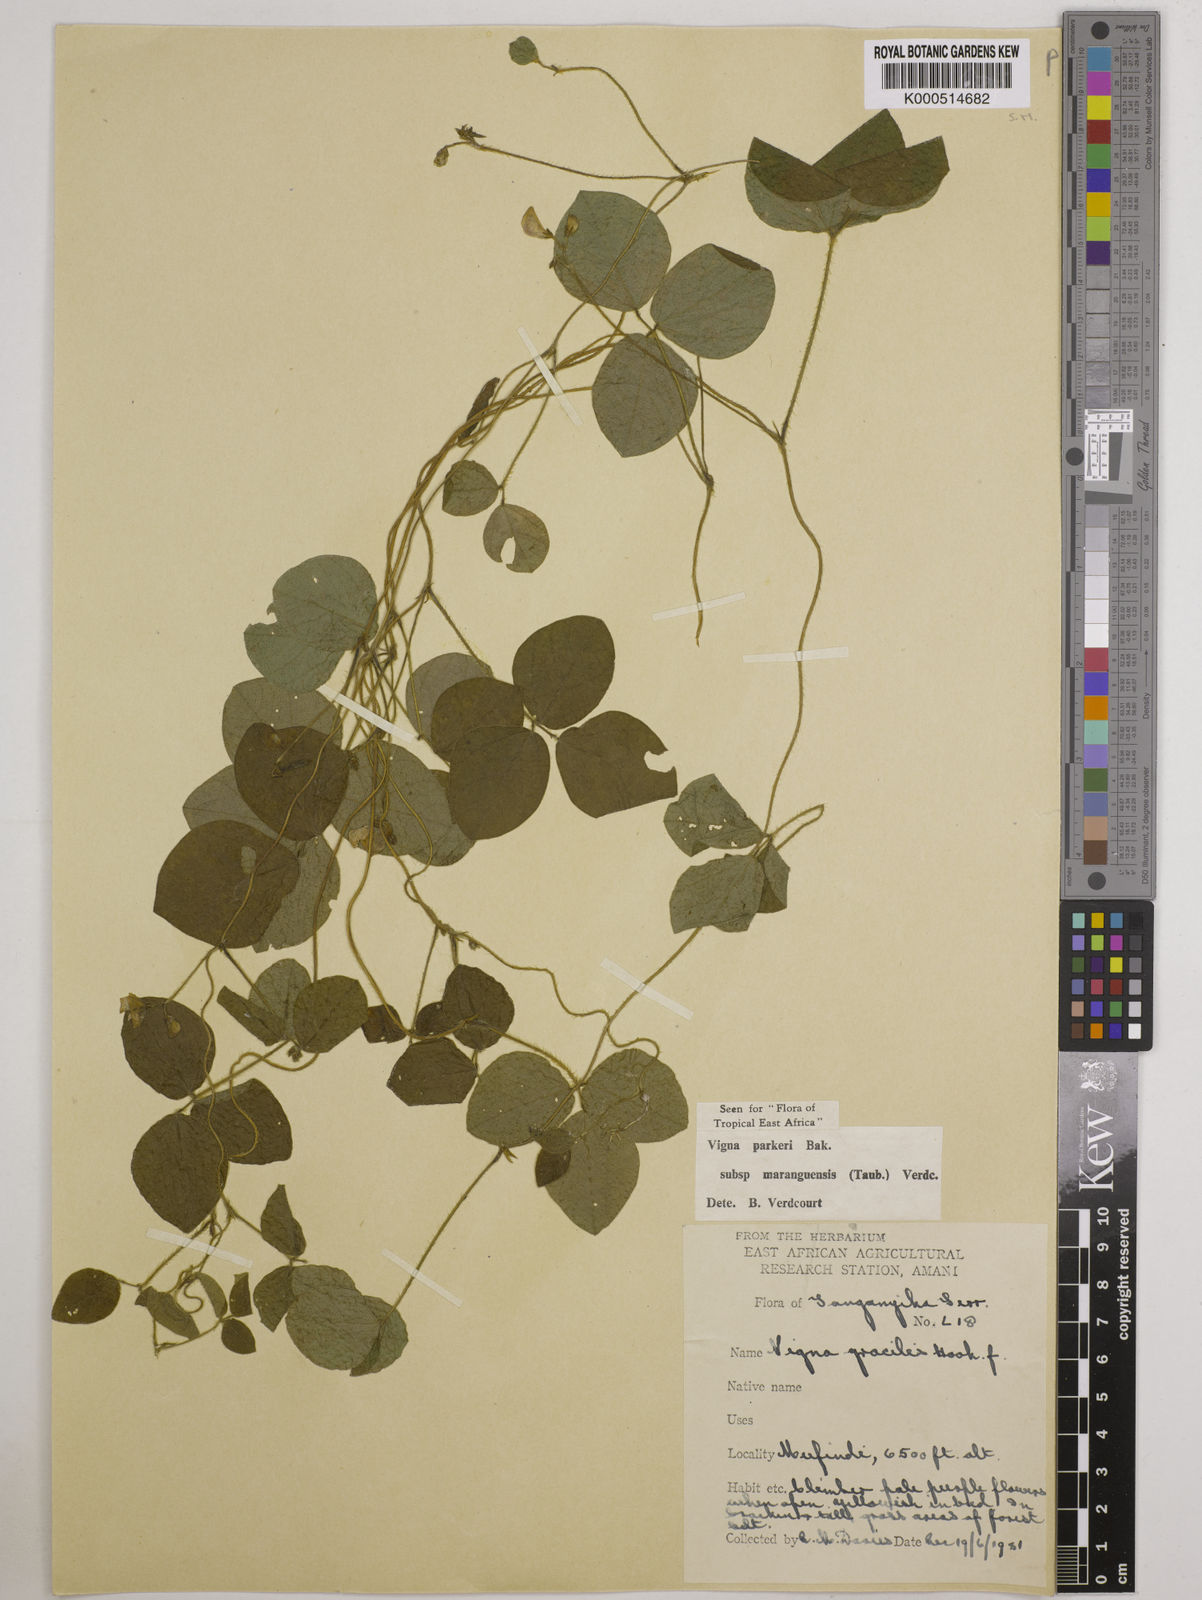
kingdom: Plantae
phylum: Tracheophyta
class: Magnoliopsida
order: Fabales
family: Fabaceae
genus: Vigna
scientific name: Vigna
